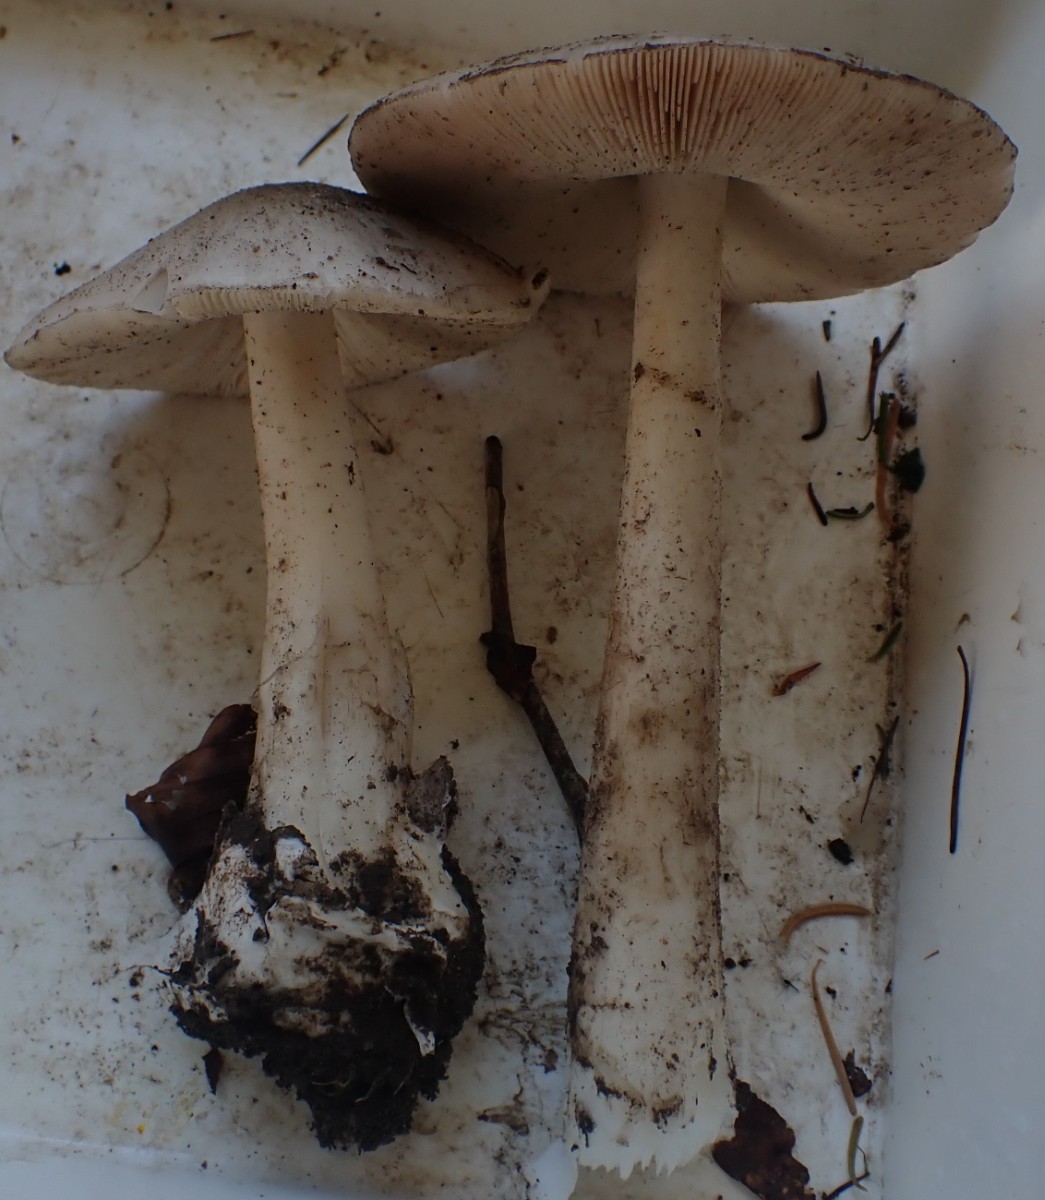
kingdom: Fungi
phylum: Basidiomycota
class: Agaricomycetes
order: Agaricales
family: Pluteaceae
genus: Volvopluteus
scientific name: Volvopluteus gloiocephalus
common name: høj posesvamp
